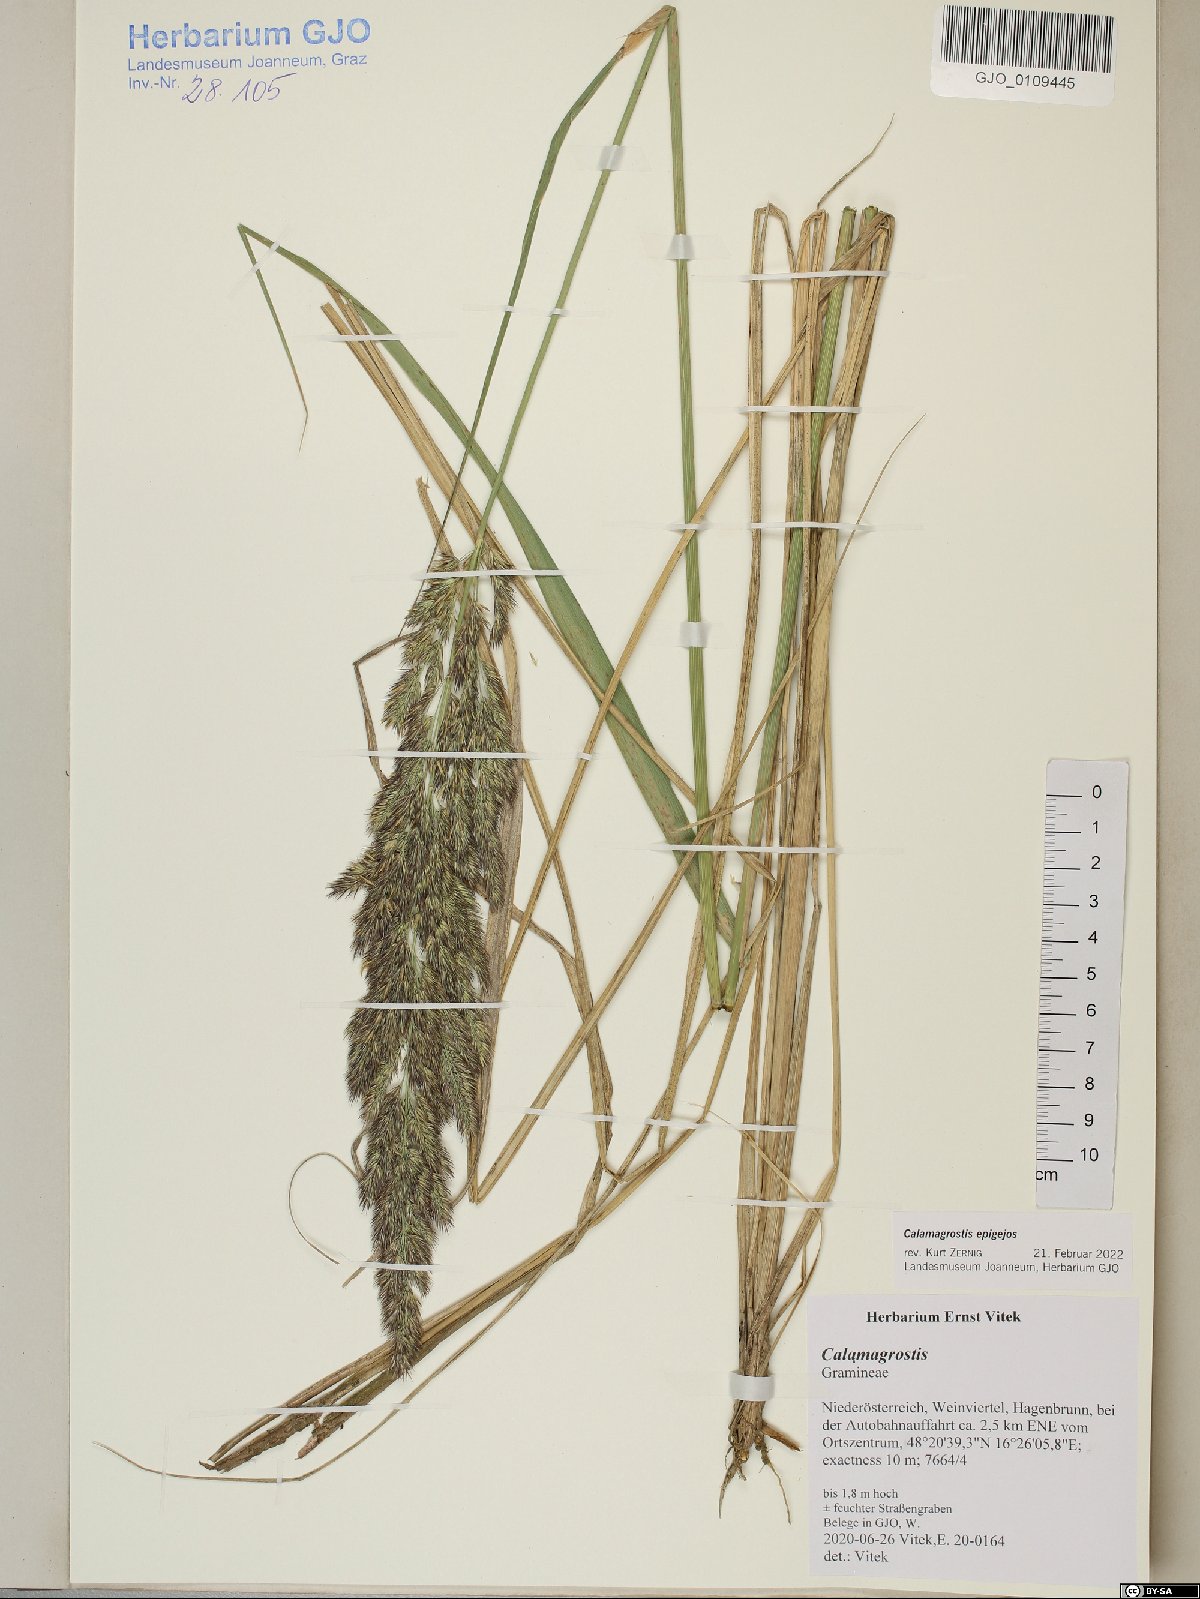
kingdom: Plantae
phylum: Tracheophyta
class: Liliopsida
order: Poales
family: Poaceae
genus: Calamagrostis
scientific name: Calamagrostis epigejos
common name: Wood small-reed
